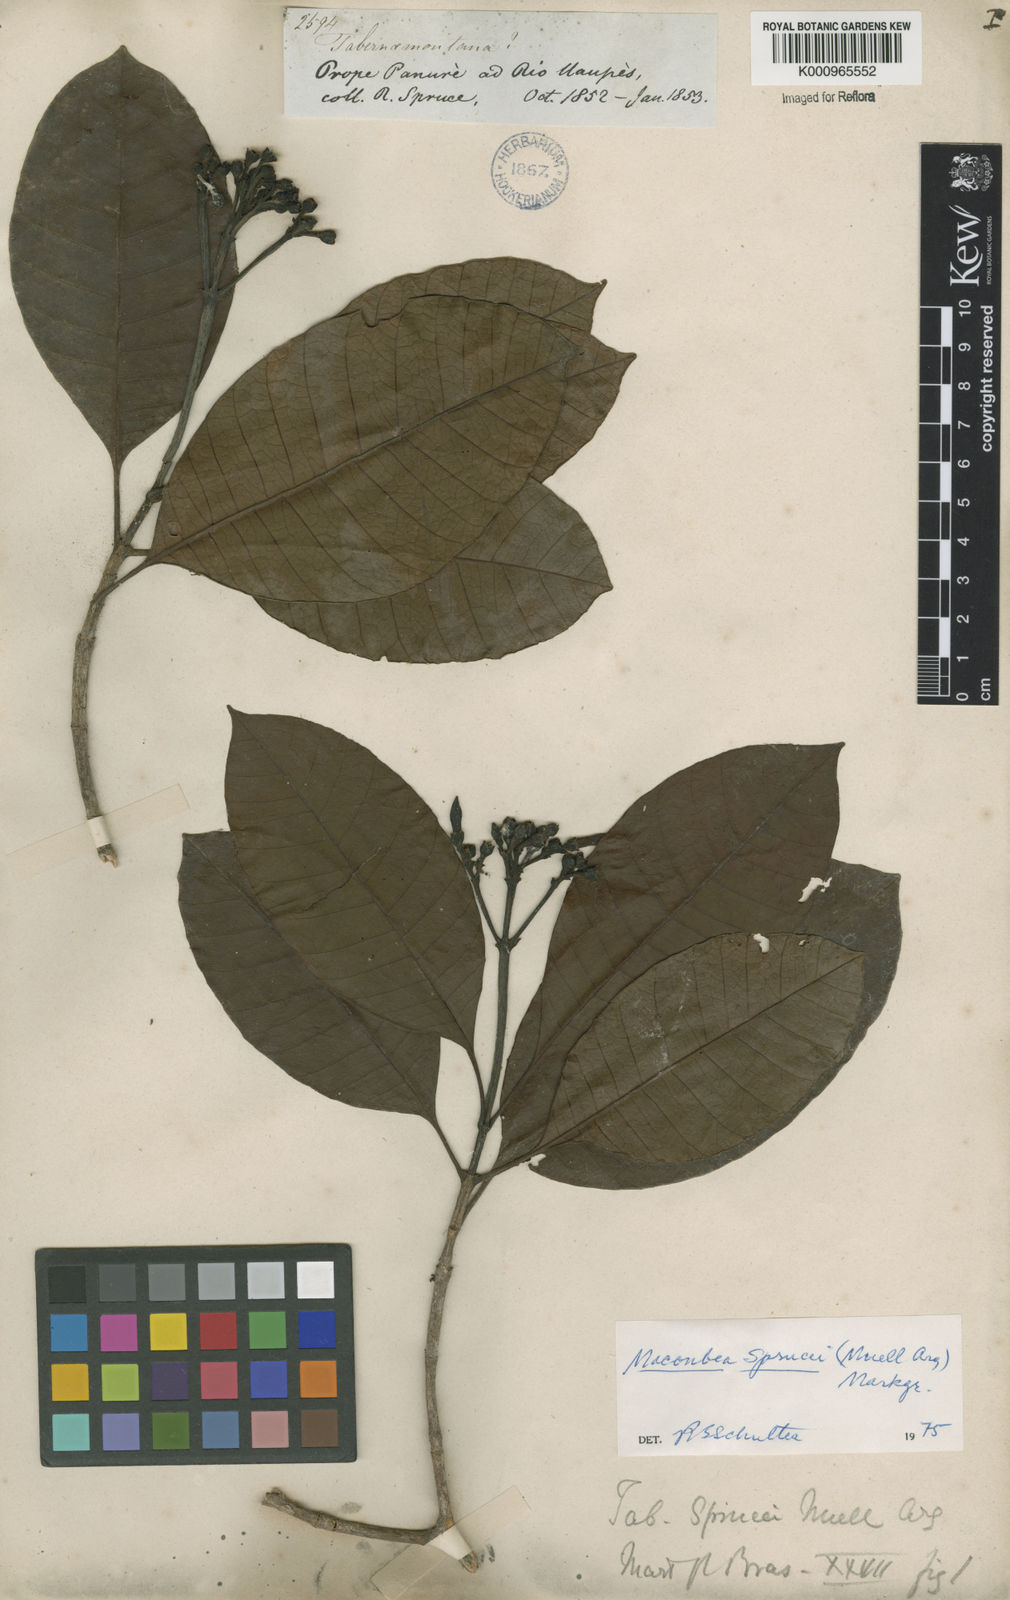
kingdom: Plantae
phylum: Tracheophyta
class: Magnoliopsida
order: Gentianales
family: Apocynaceae
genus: Macoubea
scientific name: Macoubea
